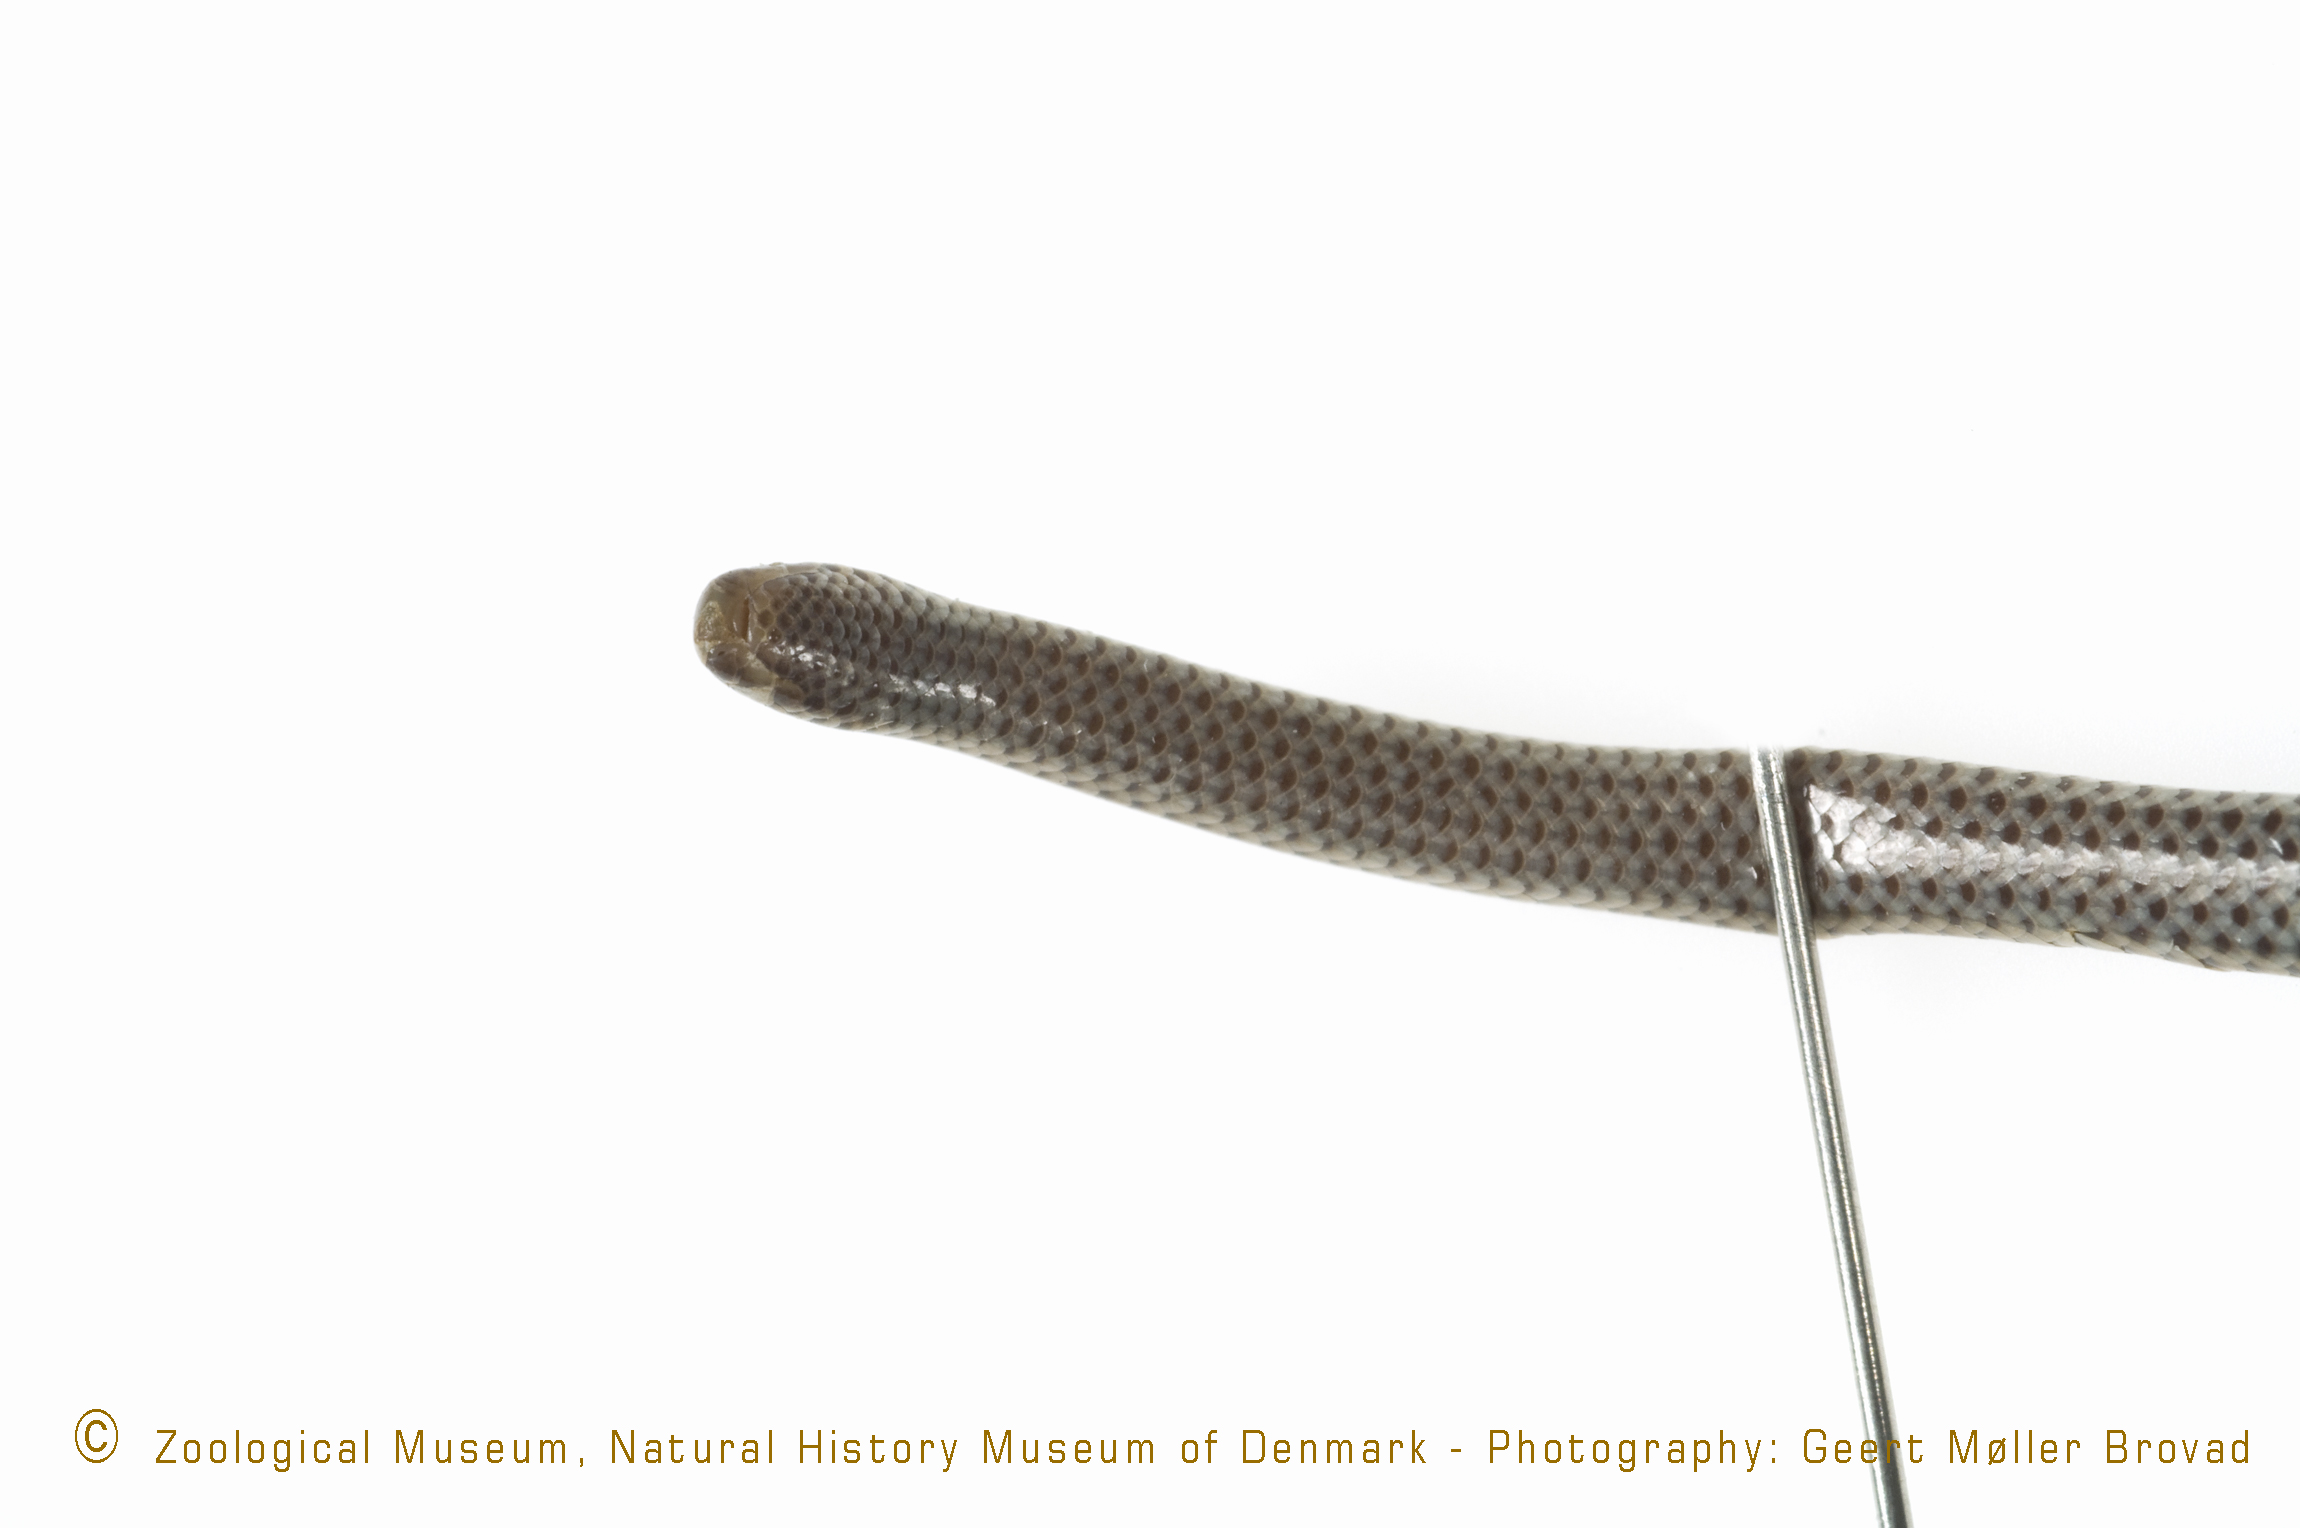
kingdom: Animalia
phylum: Chordata
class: Squamata
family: Leptotyphlopidae
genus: Leptotyphlops
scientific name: Leptotyphlops scutifrons
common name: Peter's thread snake
